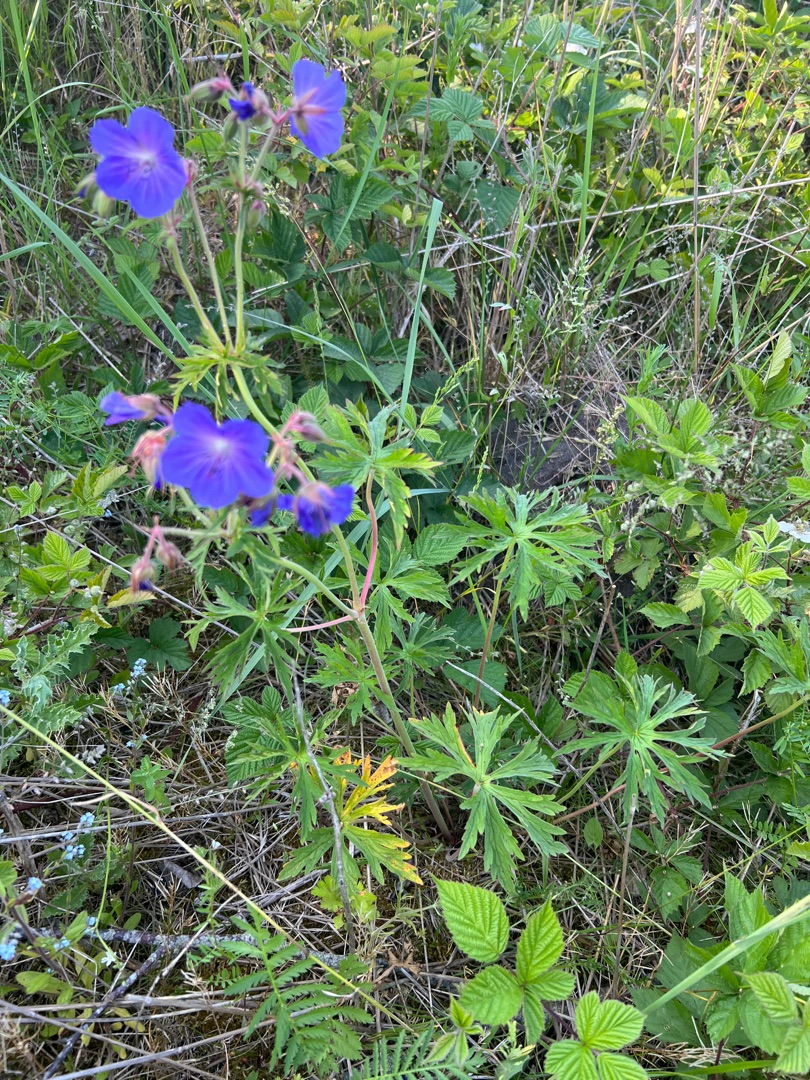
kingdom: Plantae
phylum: Tracheophyta
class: Magnoliopsida
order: Geraniales
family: Geraniaceae
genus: Geranium
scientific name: Geranium pratense
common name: Eng-storkenæb
